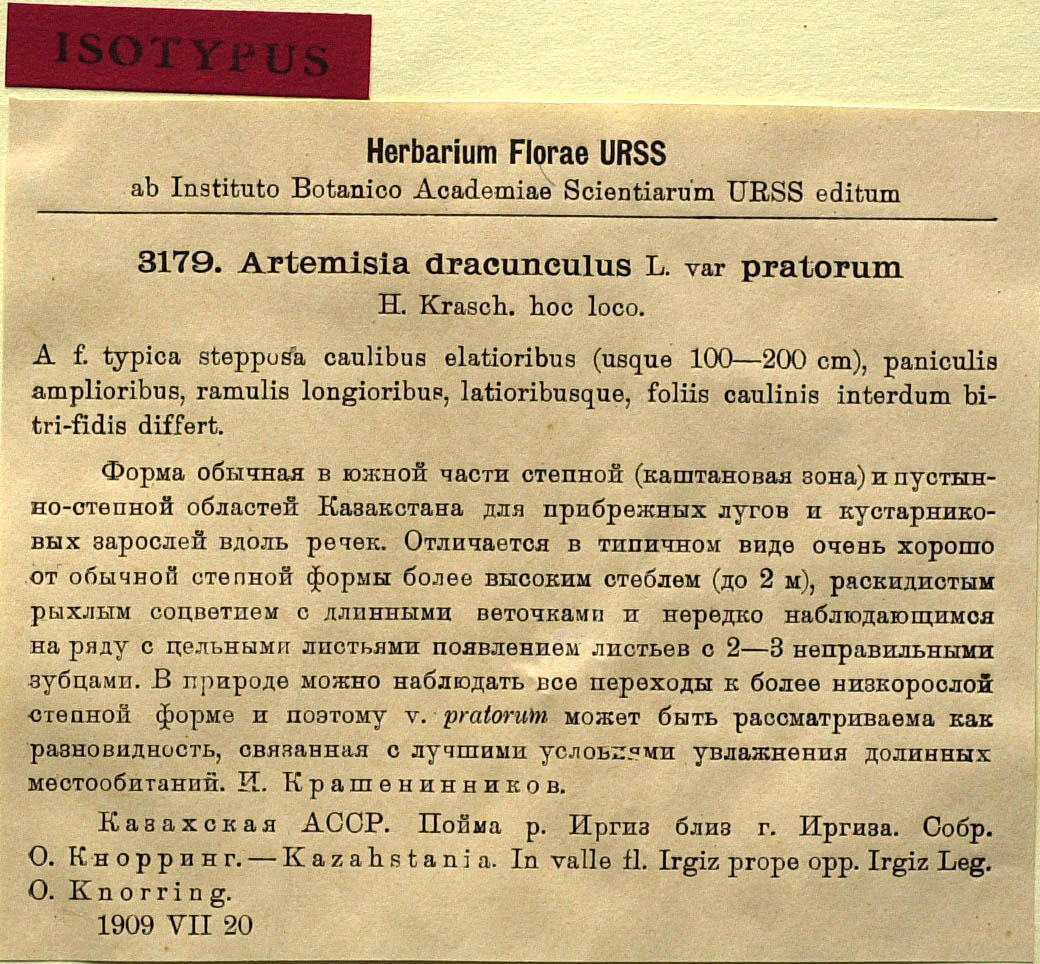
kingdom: Plantae
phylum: Tracheophyta
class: Magnoliopsida
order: Asterales
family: Asteraceae
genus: Artemisia
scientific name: Artemisia dracunculus
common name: Tarragon
